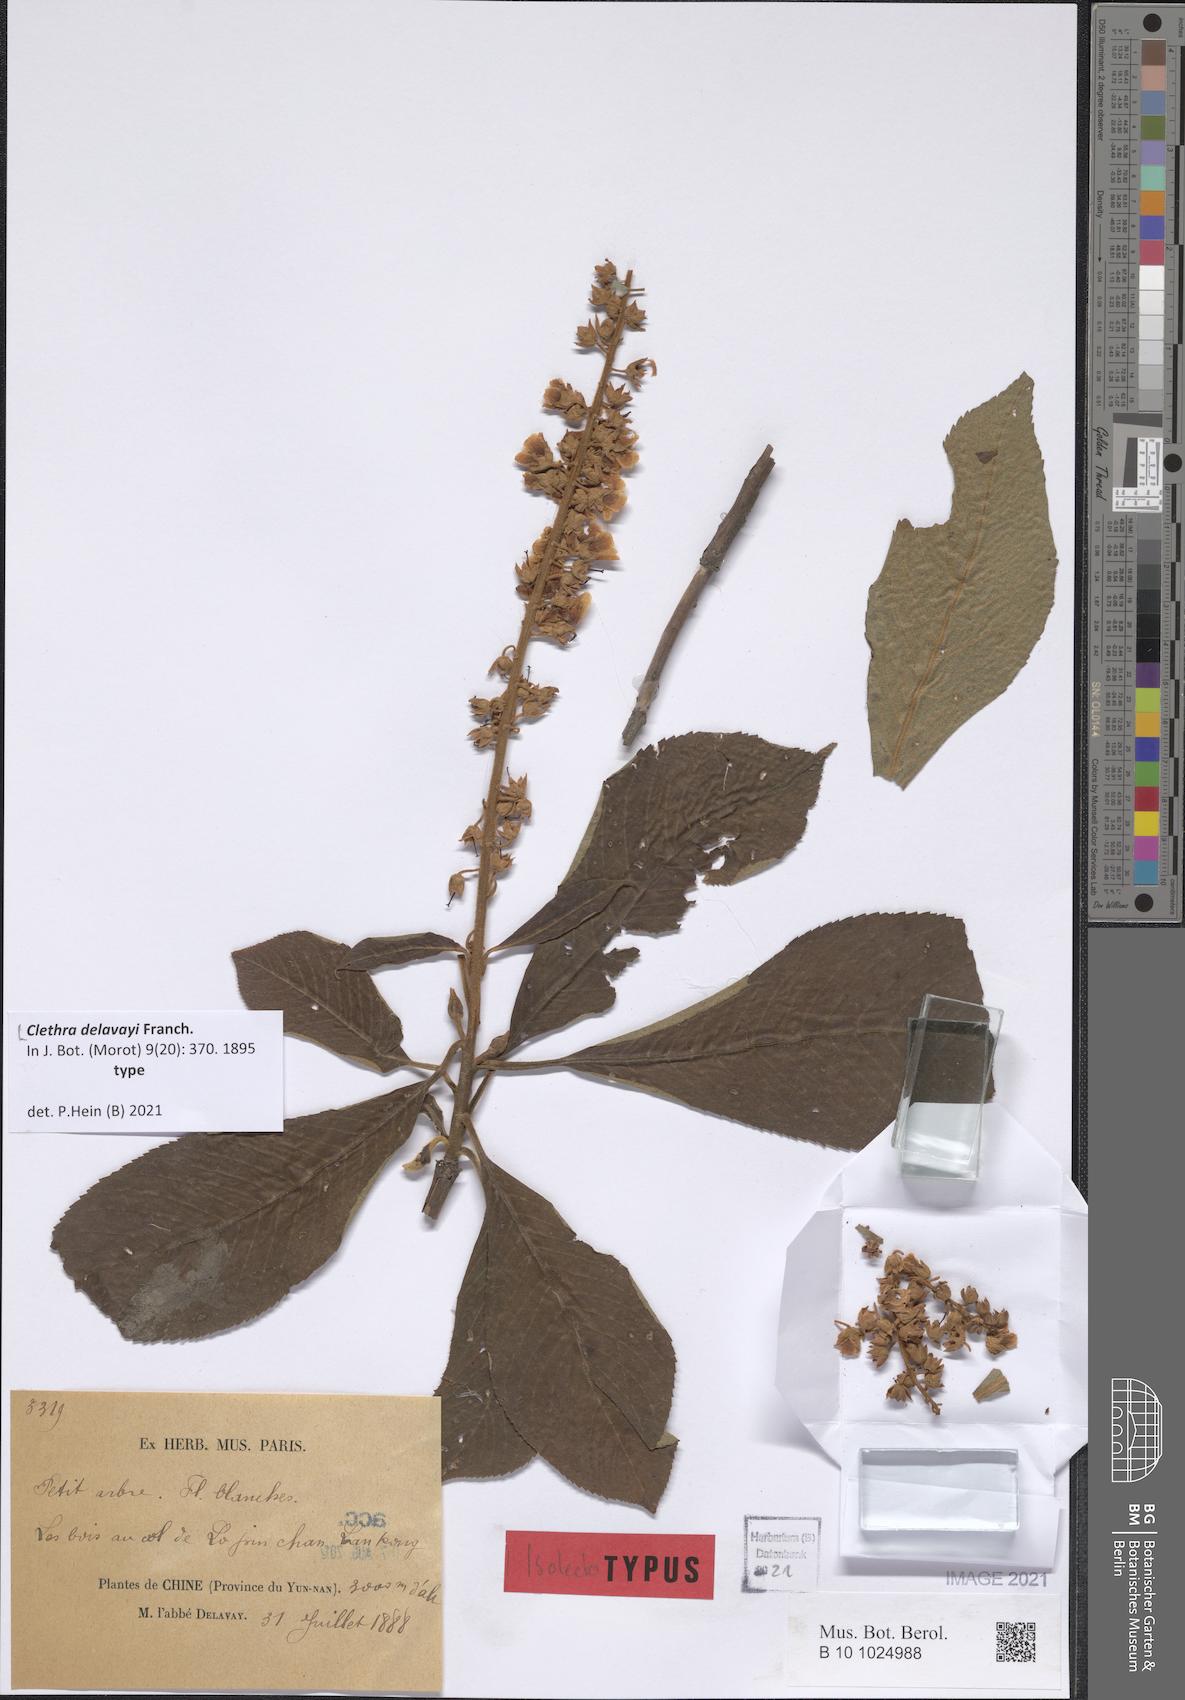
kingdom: Plantae
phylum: Tracheophyta
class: Magnoliopsida
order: Ericales
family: Clethraceae
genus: Clethra
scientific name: Clethra delavayi
